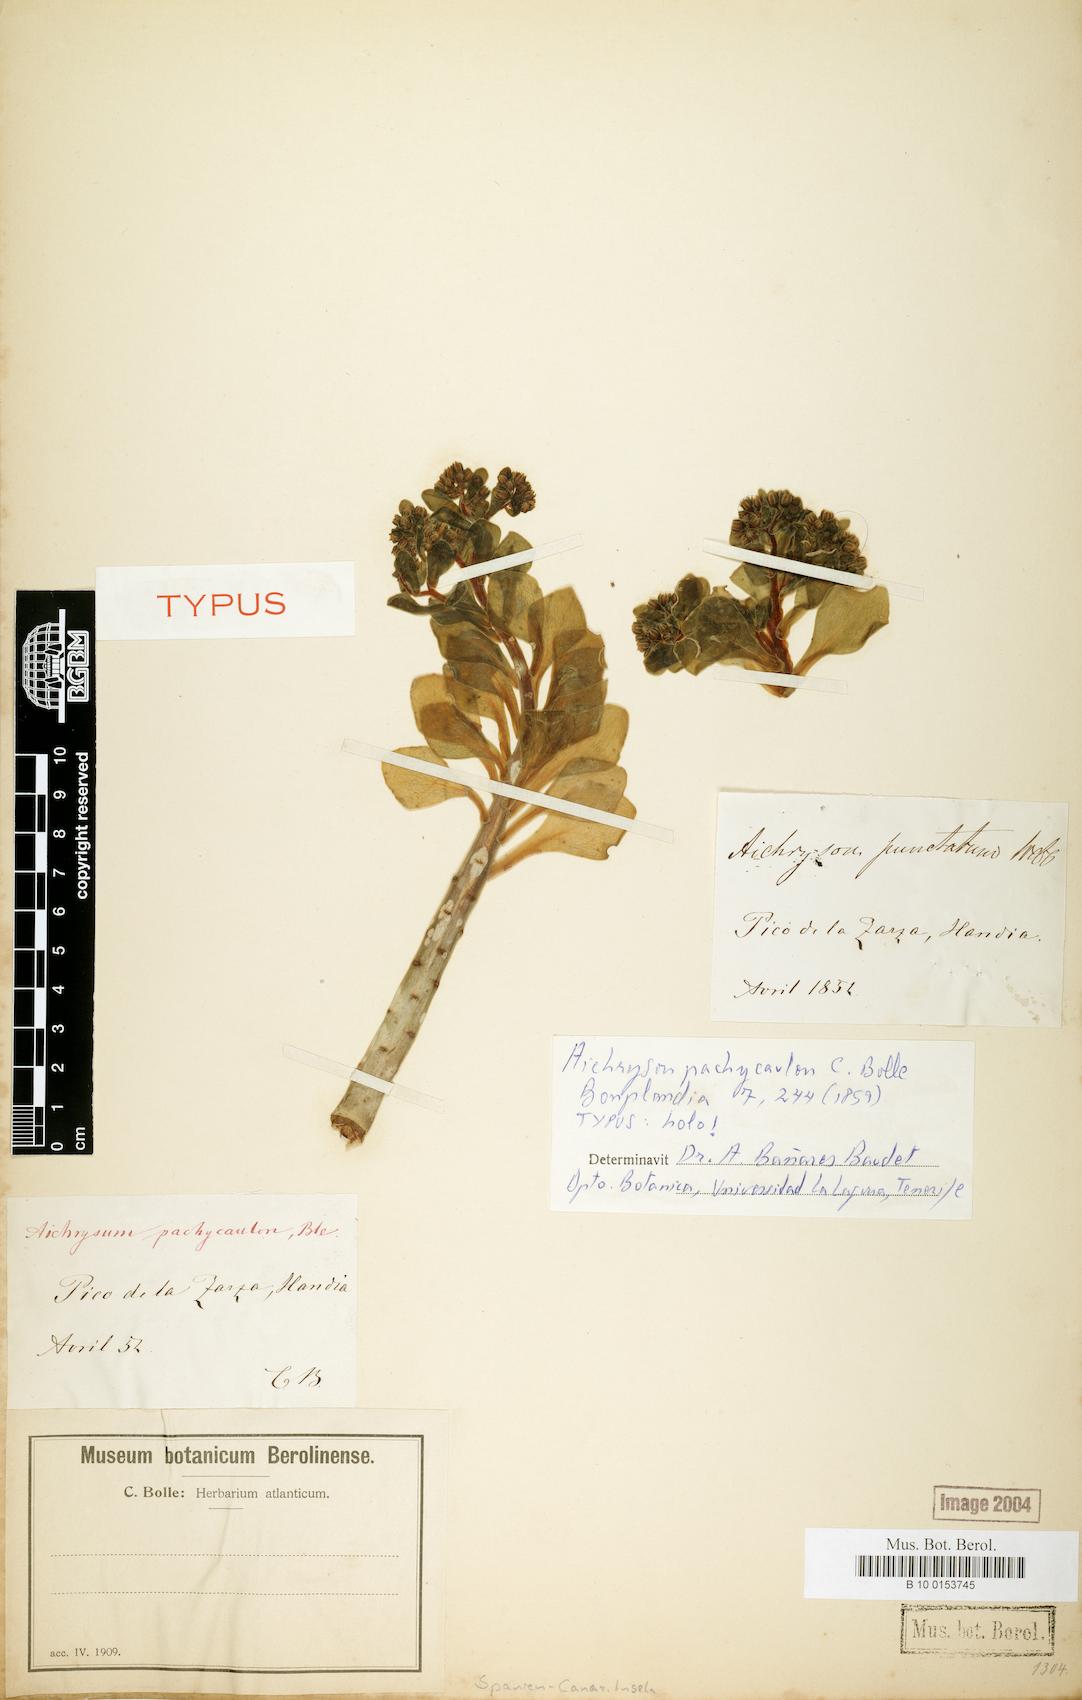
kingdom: Plantae
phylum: Tracheophyta
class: Magnoliopsida
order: Saxifragales
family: Crassulaceae
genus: Aichryson
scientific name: Aichryson pachycaulon
